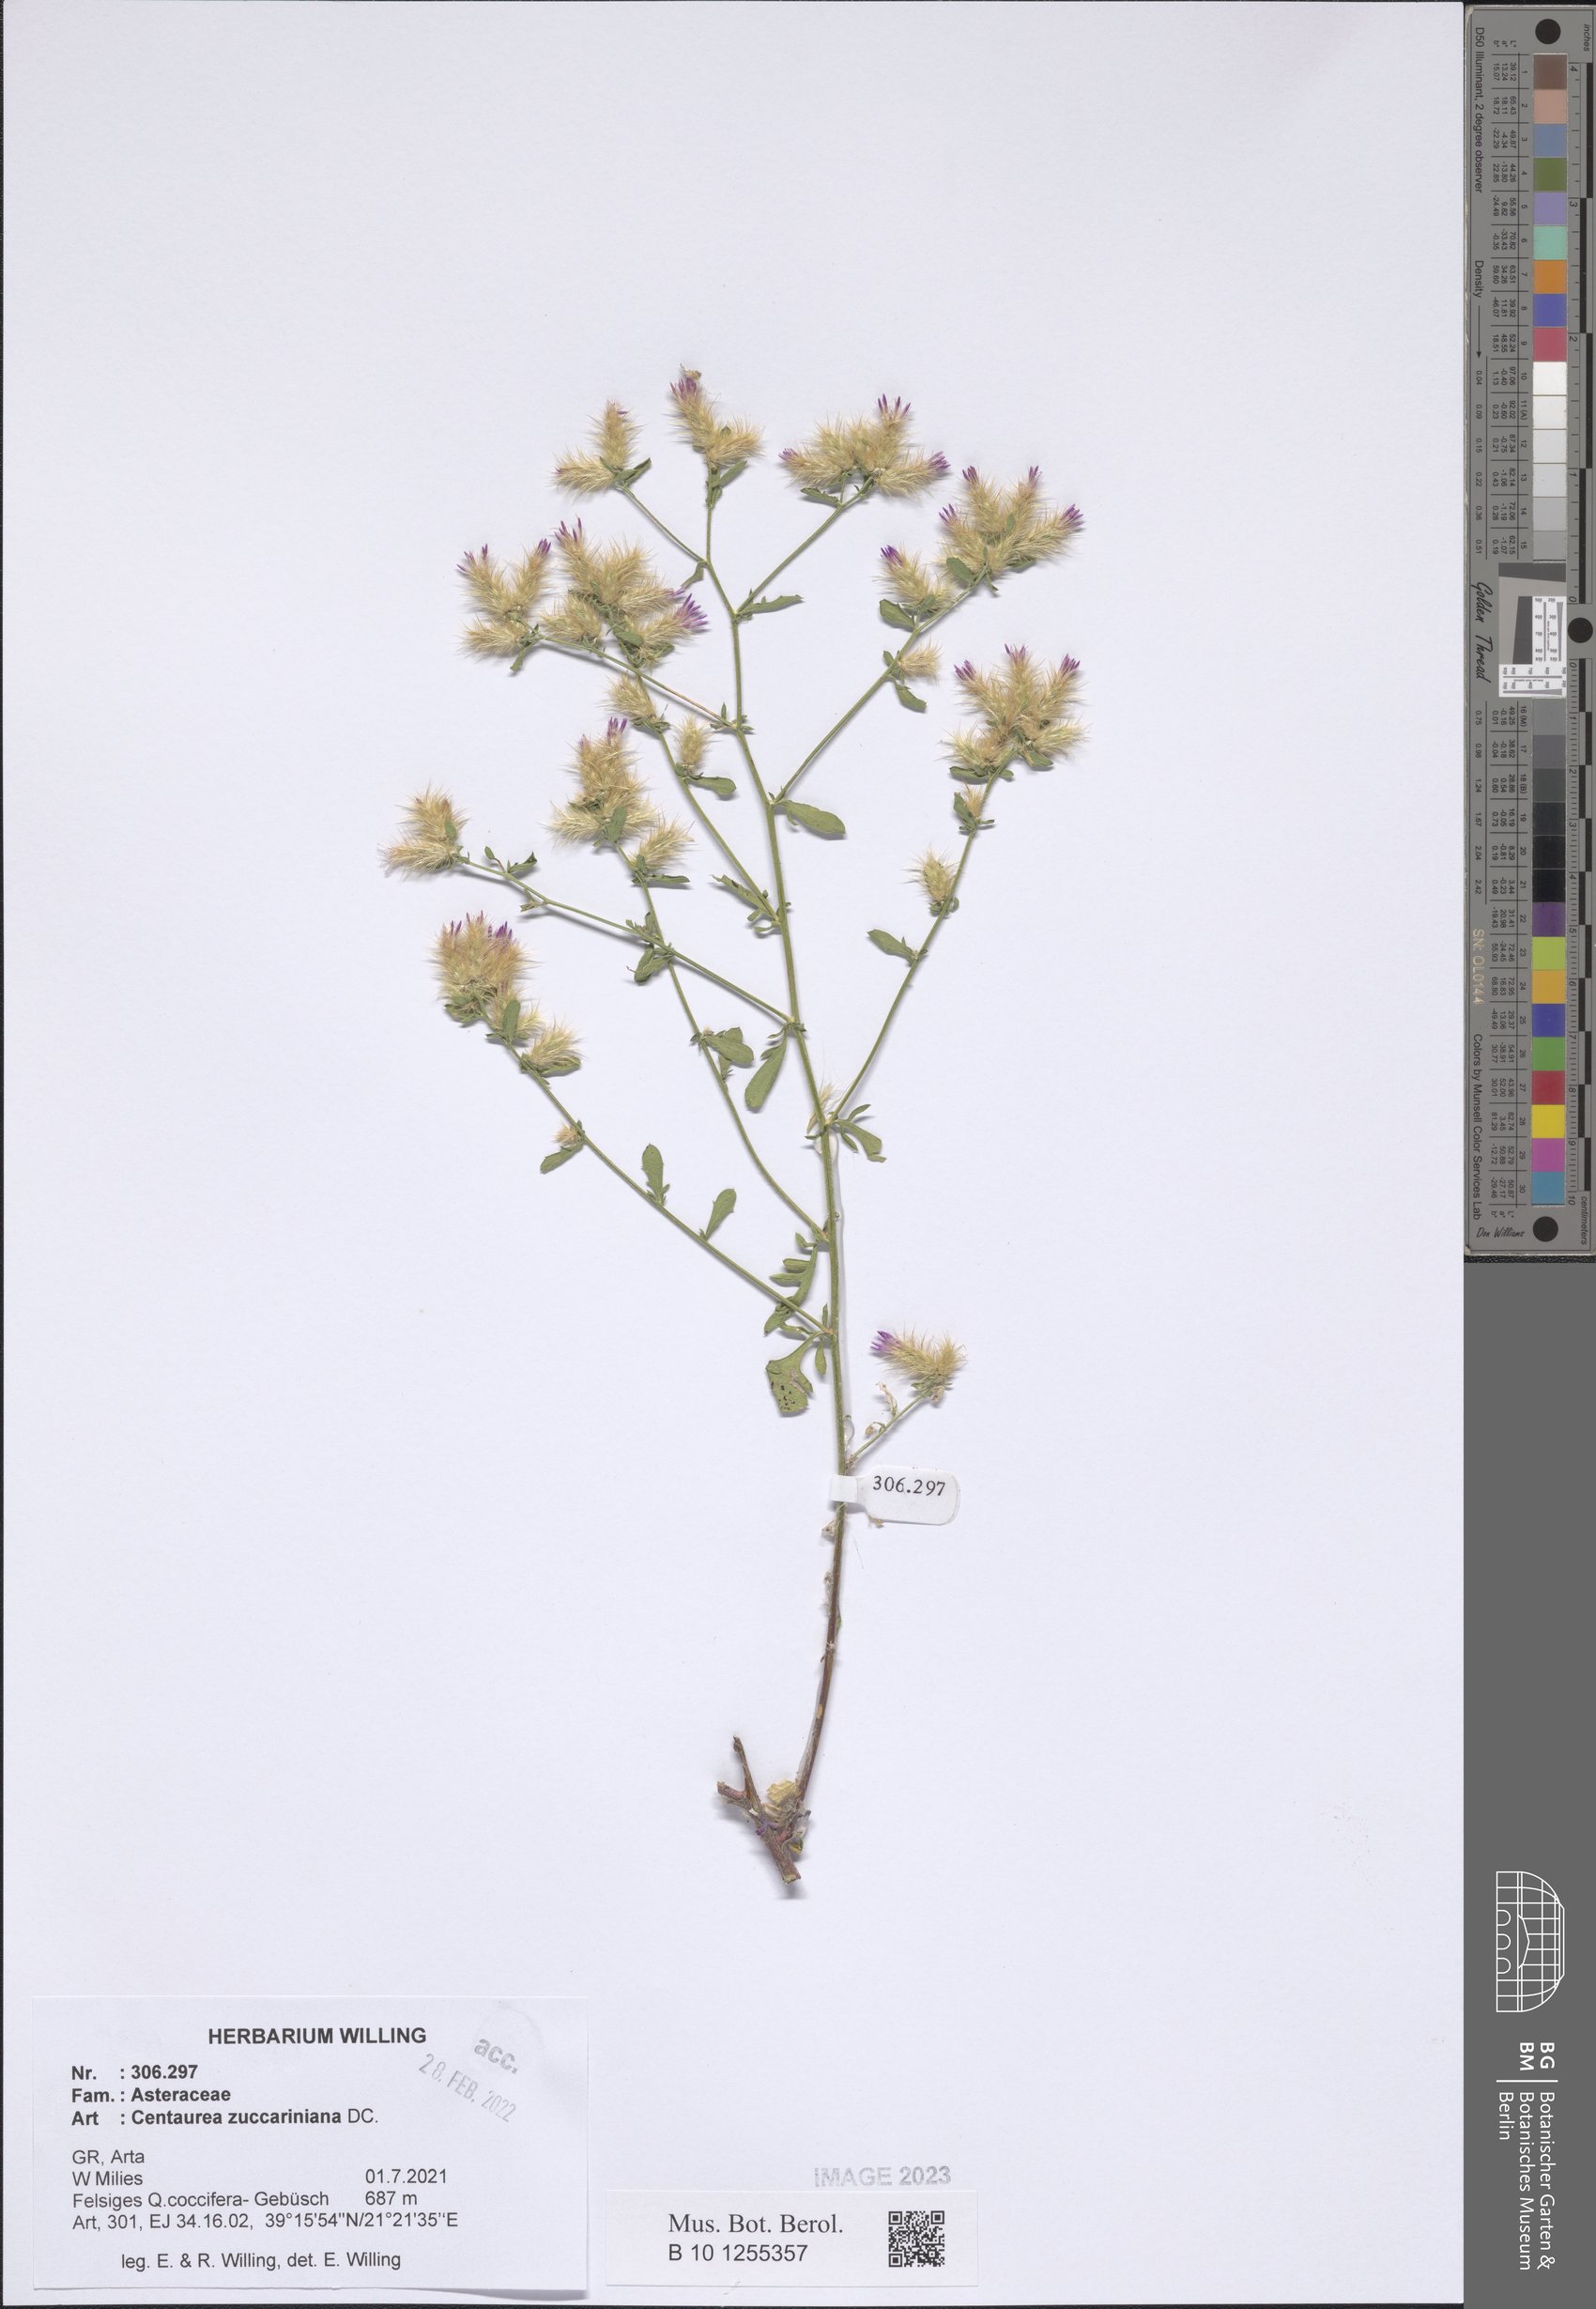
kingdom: Plantae
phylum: Tracheophyta
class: Magnoliopsida
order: Asterales
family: Asteraceae
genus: Centaurea
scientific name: Centaurea zuccariniana
